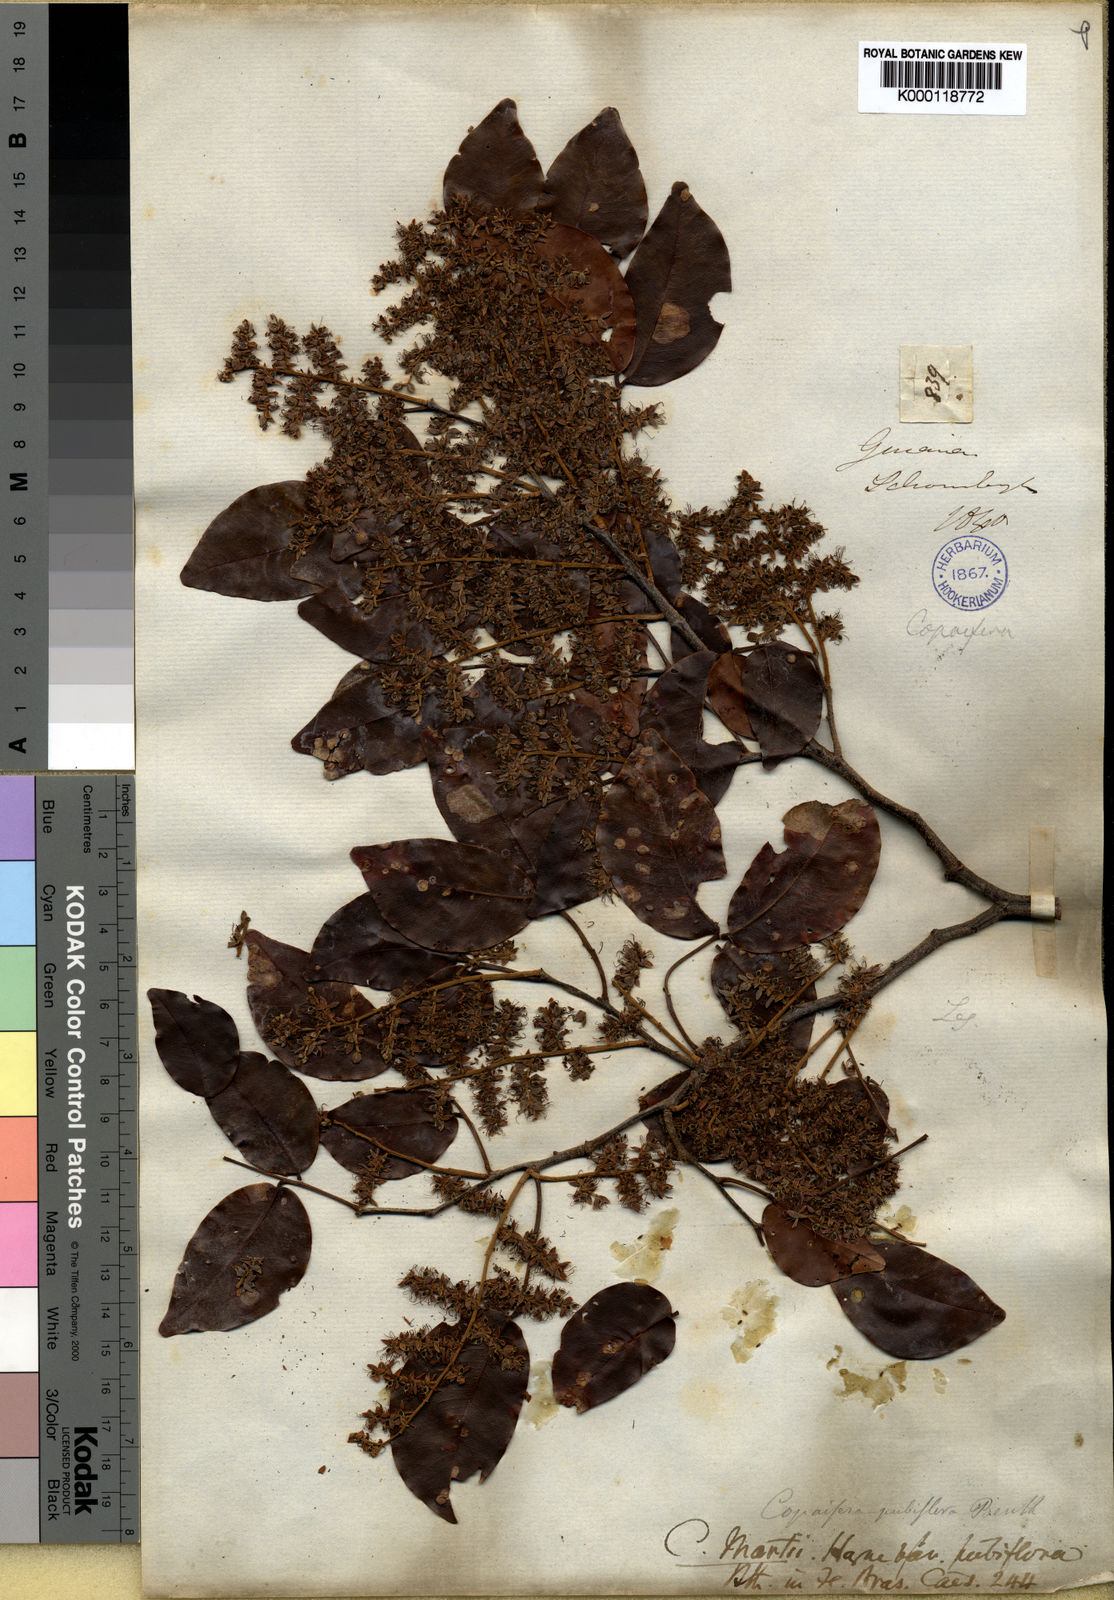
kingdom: Plantae
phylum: Tracheophyta
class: Magnoliopsida
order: Fabales
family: Fabaceae
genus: Copaifera
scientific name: Copaifera pubiflora
